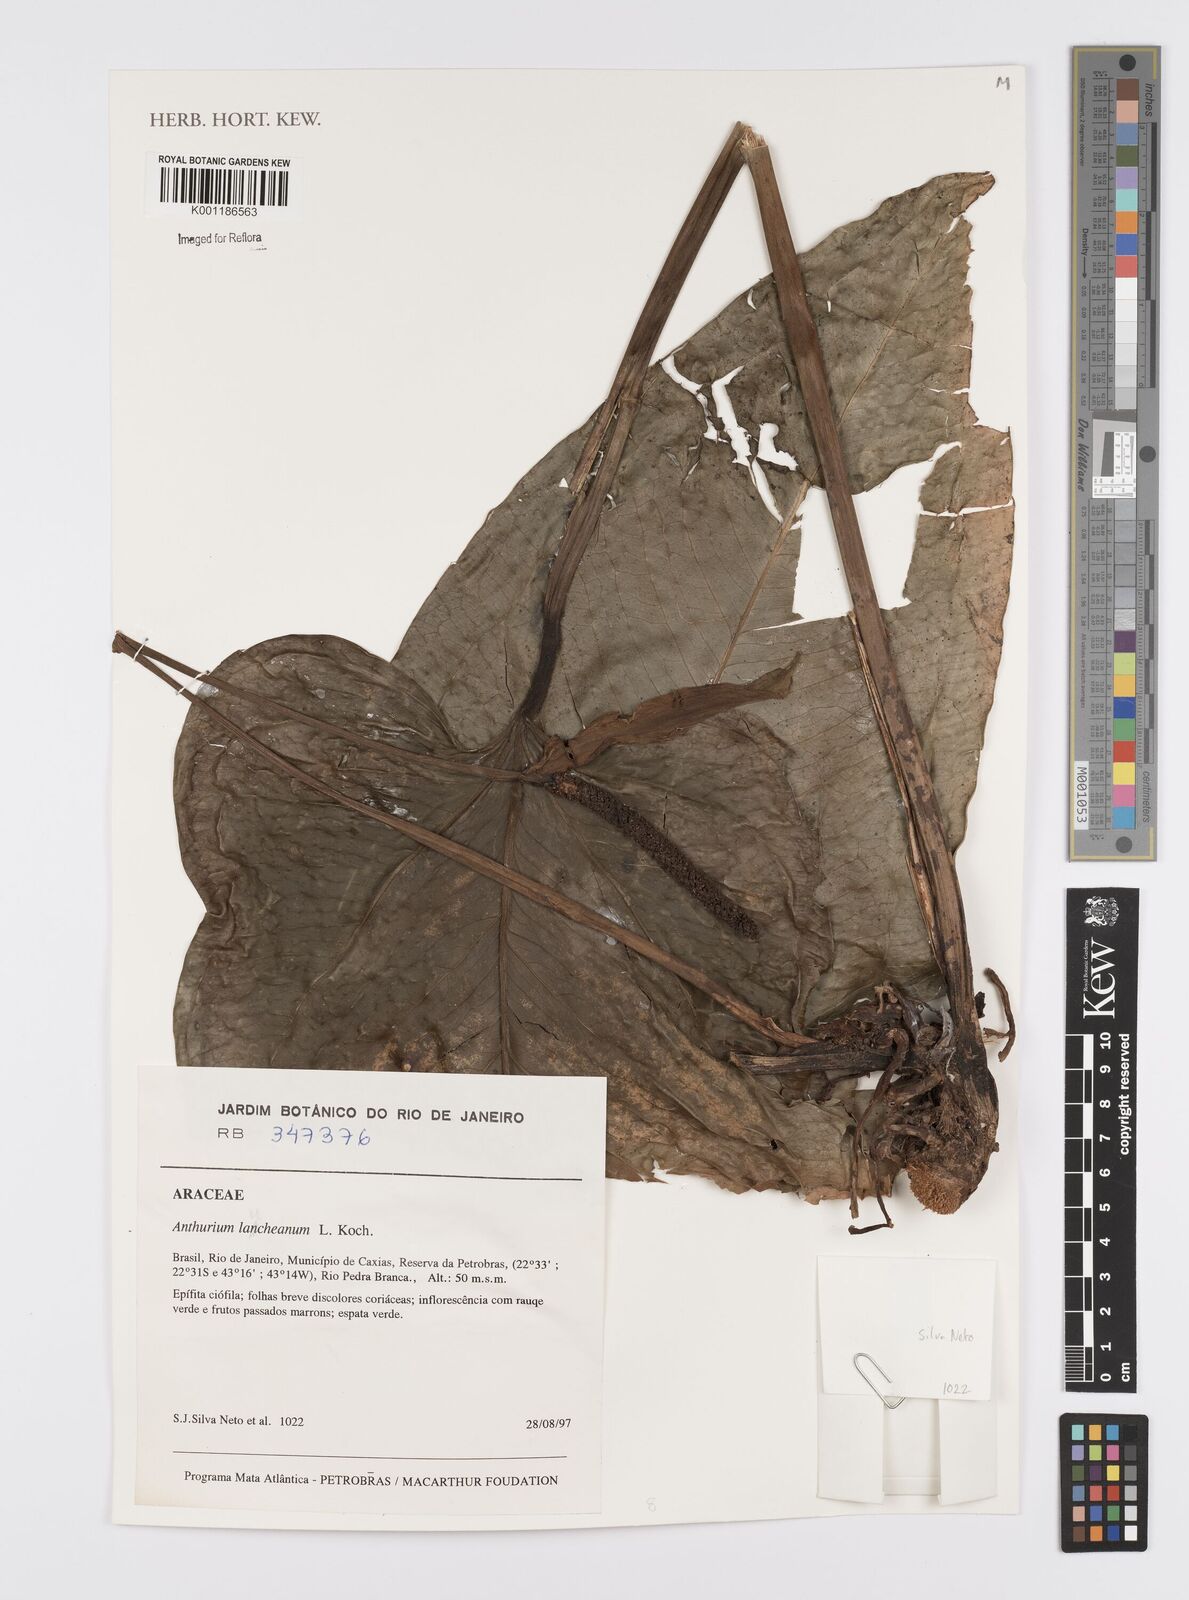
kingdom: Plantae
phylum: Tracheophyta
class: Liliopsida
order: Alismatales
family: Araceae
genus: Anthurium
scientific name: Anthurium augustinum
